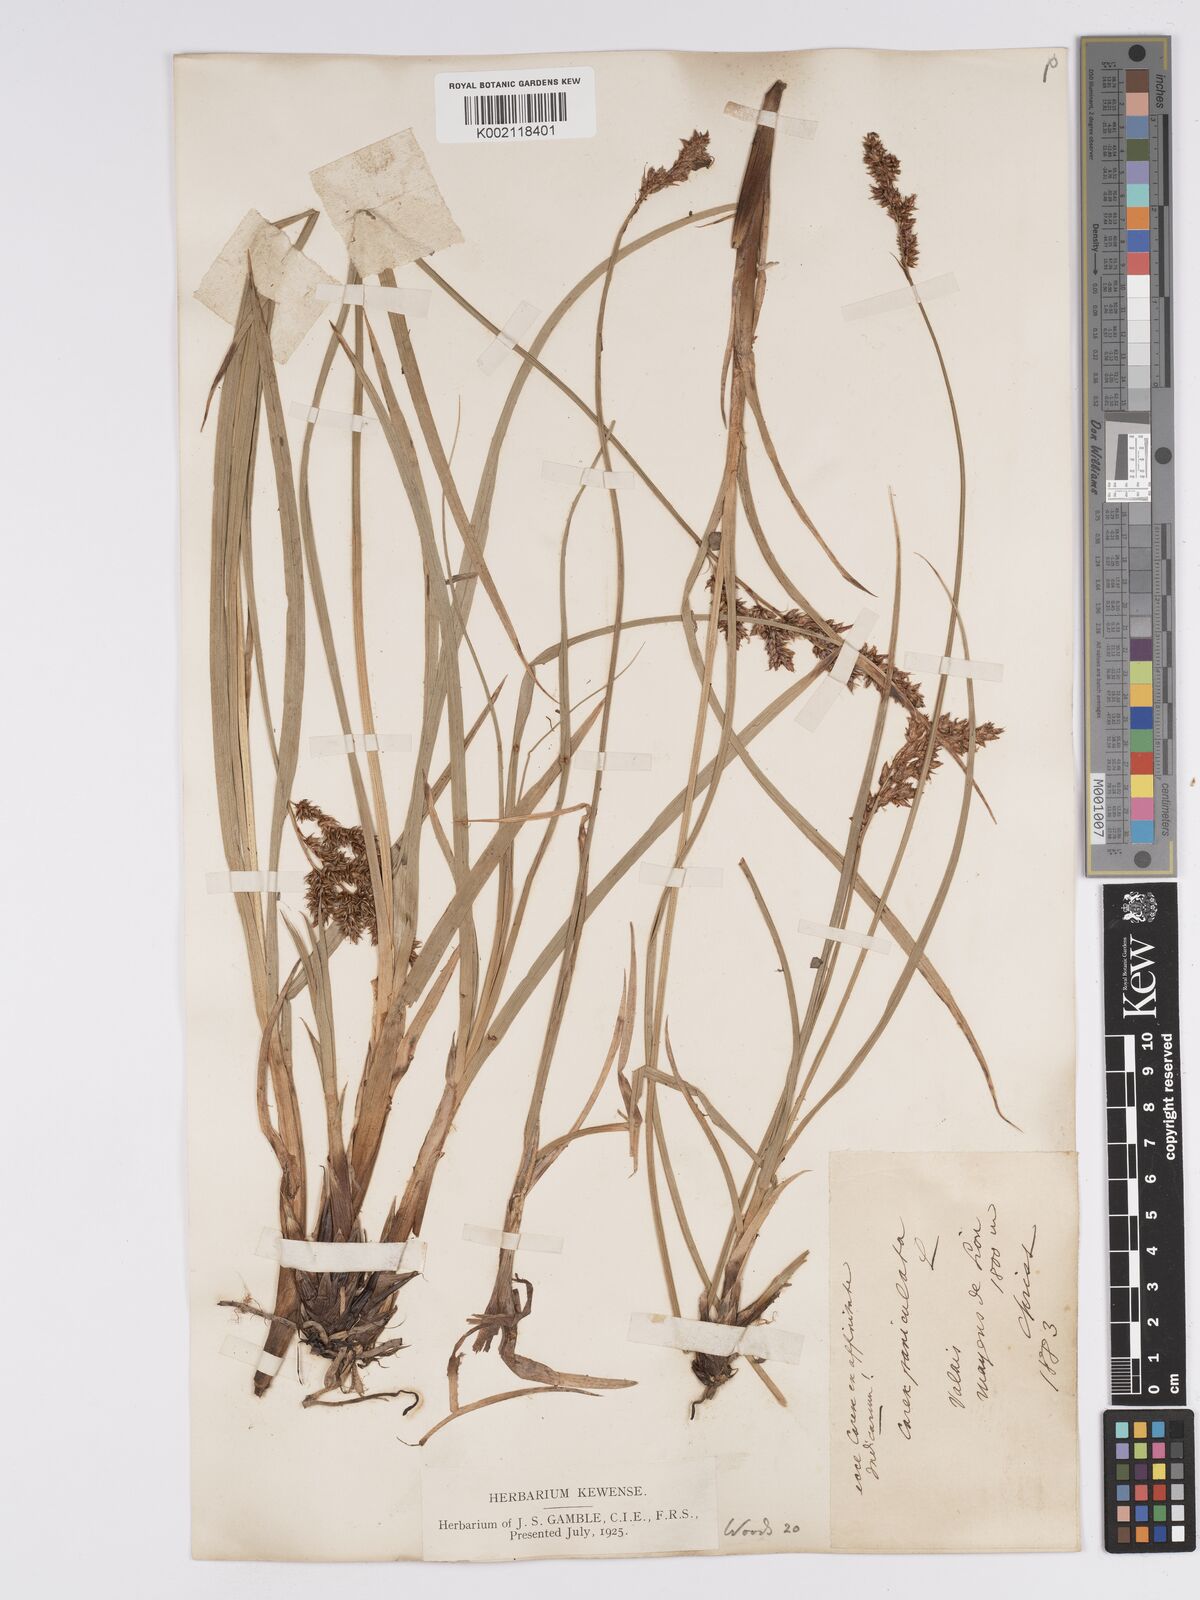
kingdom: Plantae
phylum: Tracheophyta
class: Liliopsida
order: Poales
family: Cyperaceae
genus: Carex
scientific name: Carex paniculata
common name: Greater tussock-sedge
